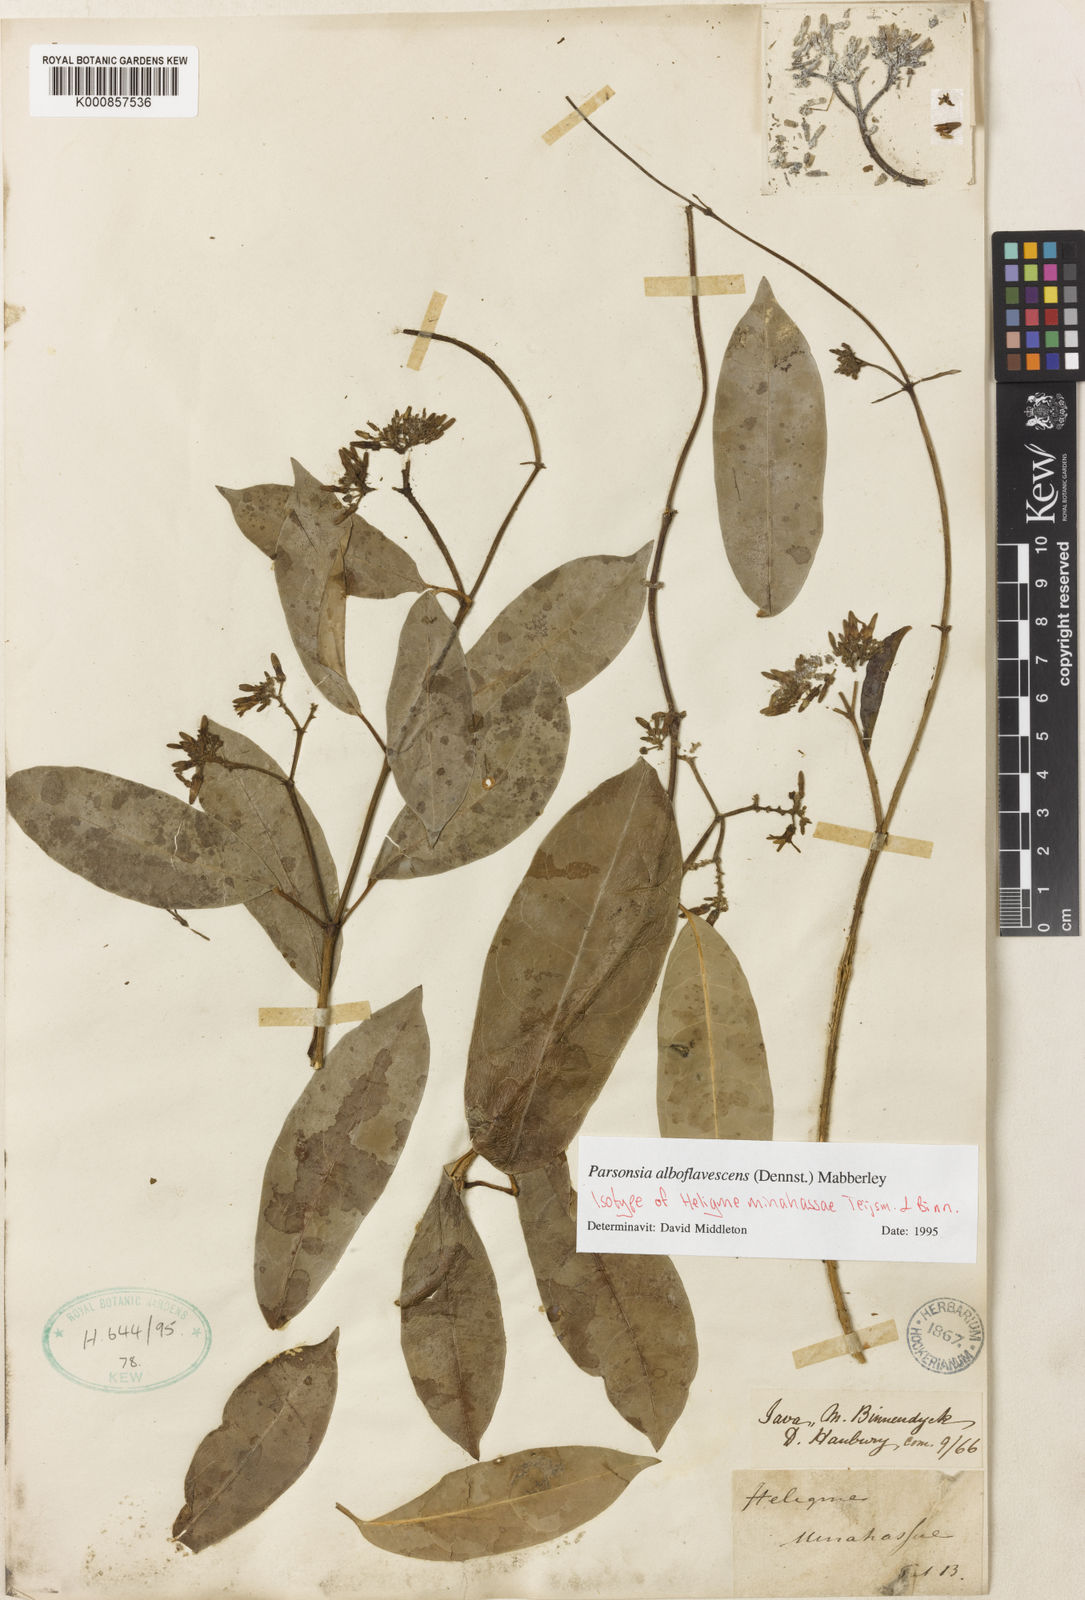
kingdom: Plantae
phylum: Tracheophyta
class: Magnoliopsida
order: Gentianales
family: Apocynaceae
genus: Parsonsia
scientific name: Parsonsia alboflavescens
